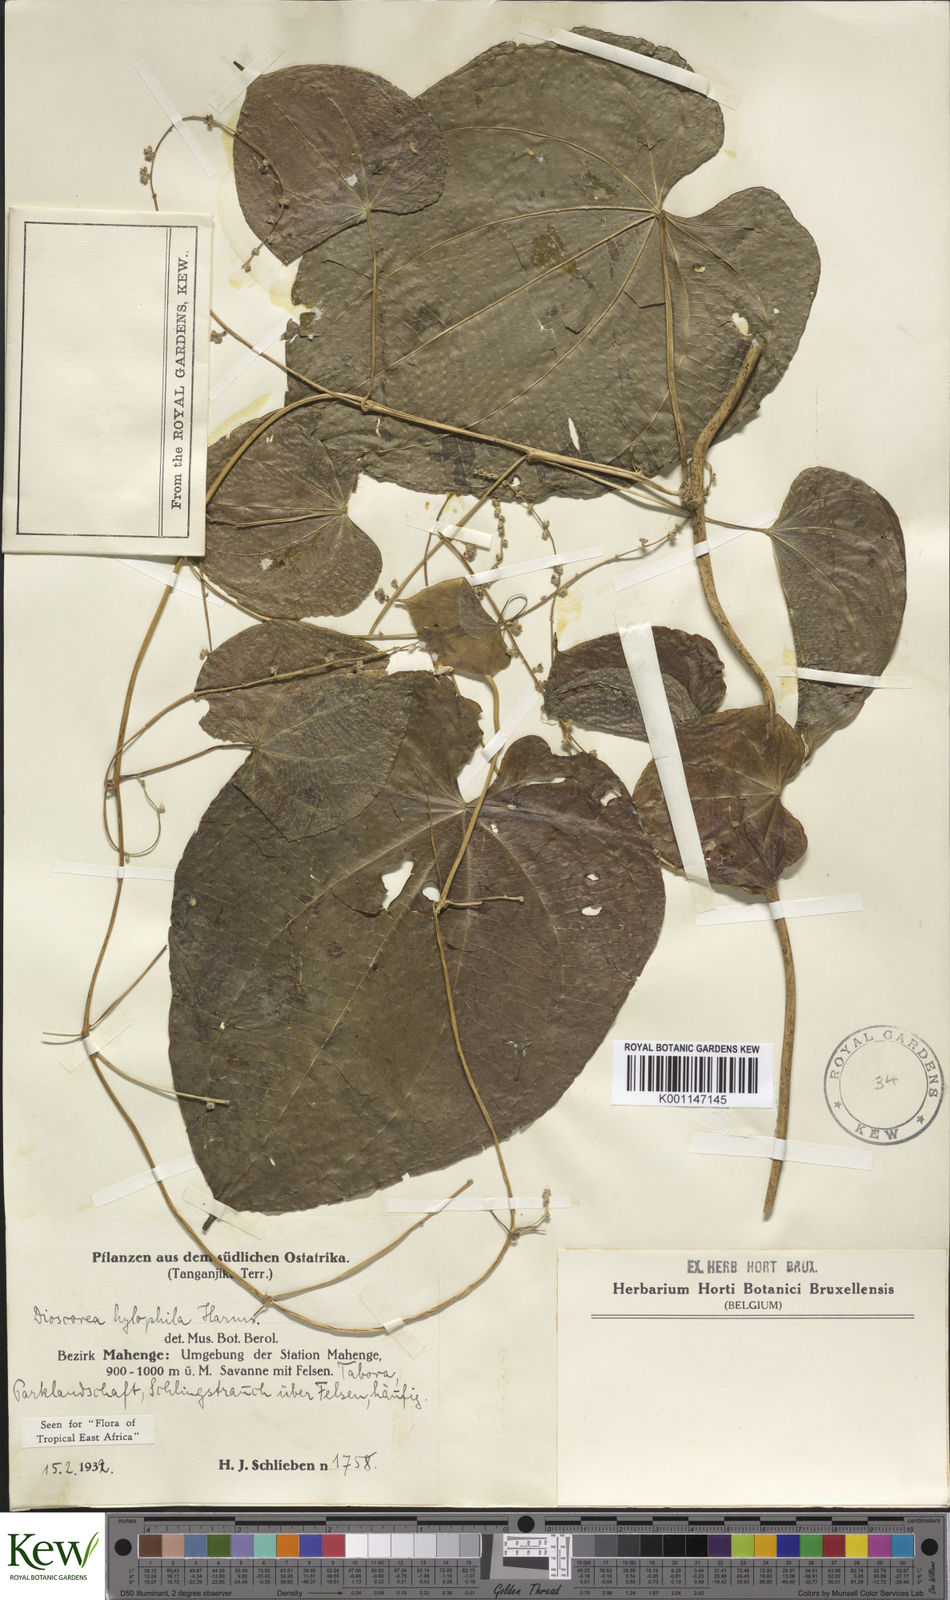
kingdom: Plantae
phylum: Tracheophyta
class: Liliopsida
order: Dioscoreales
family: Dioscoreaceae
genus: Dioscorea
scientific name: Dioscorea
